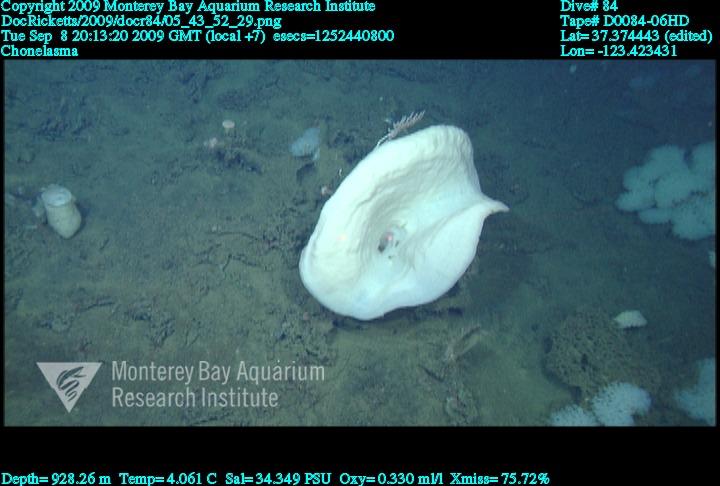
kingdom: Animalia
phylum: Porifera
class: Hexactinellida
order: Sceptrulophora
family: Euretidae
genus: Chonelasma
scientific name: Chonelasma
